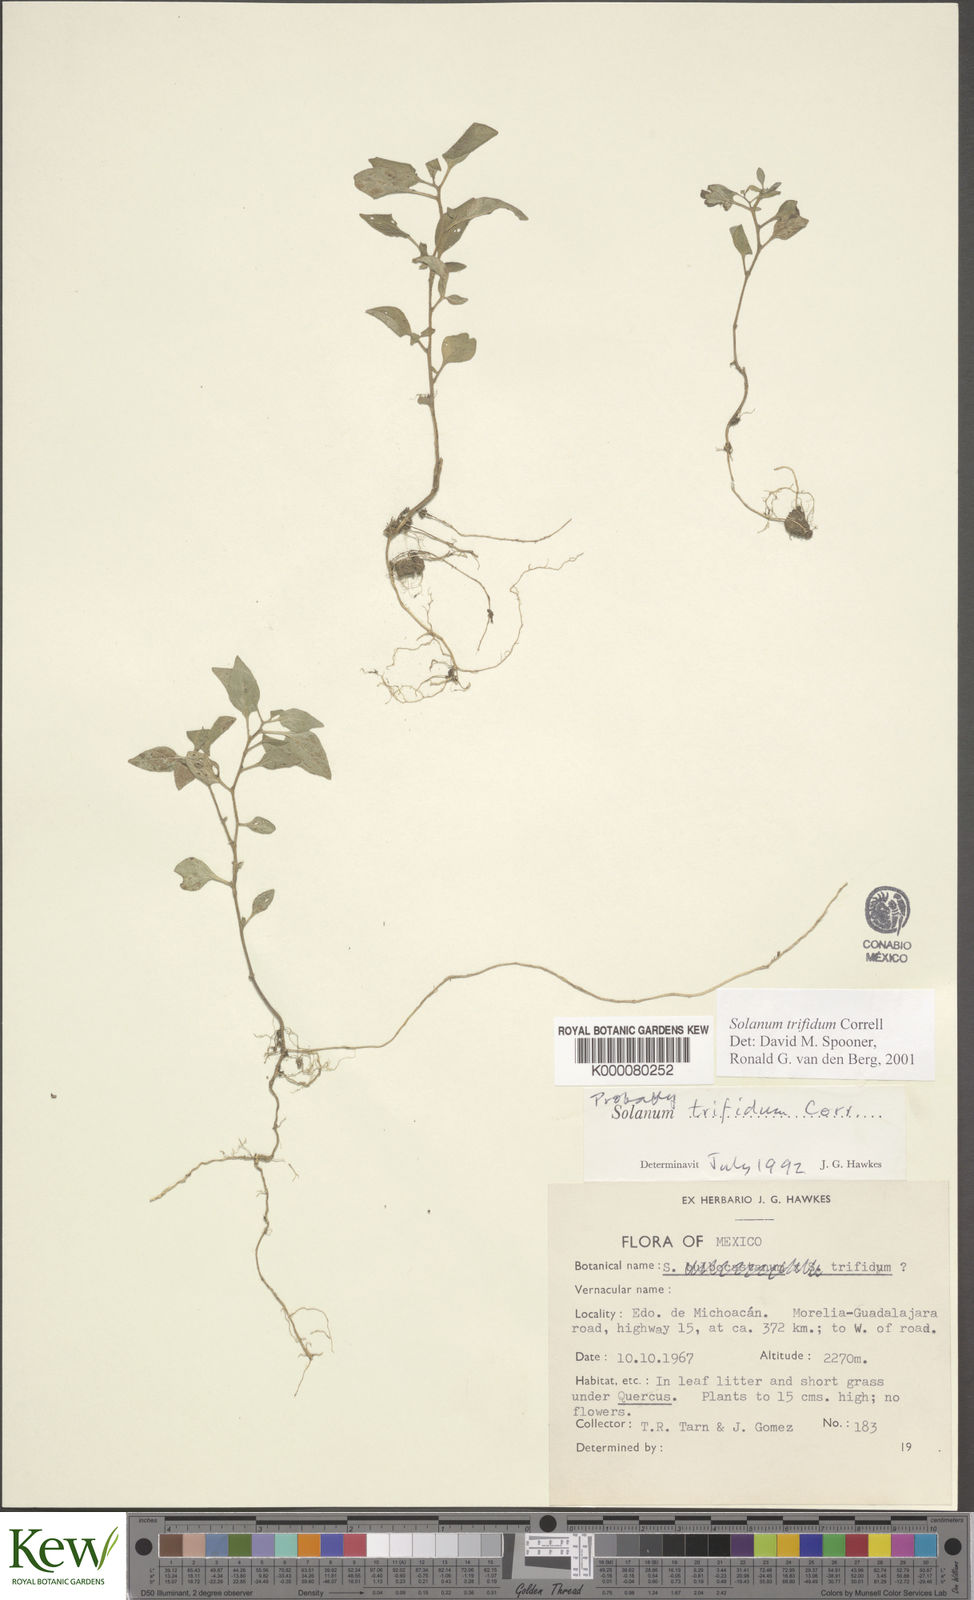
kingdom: Plantae
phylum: Tracheophyta
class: Magnoliopsida
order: Solanales
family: Solanaceae
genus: Solanum
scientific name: Solanum trifidum
